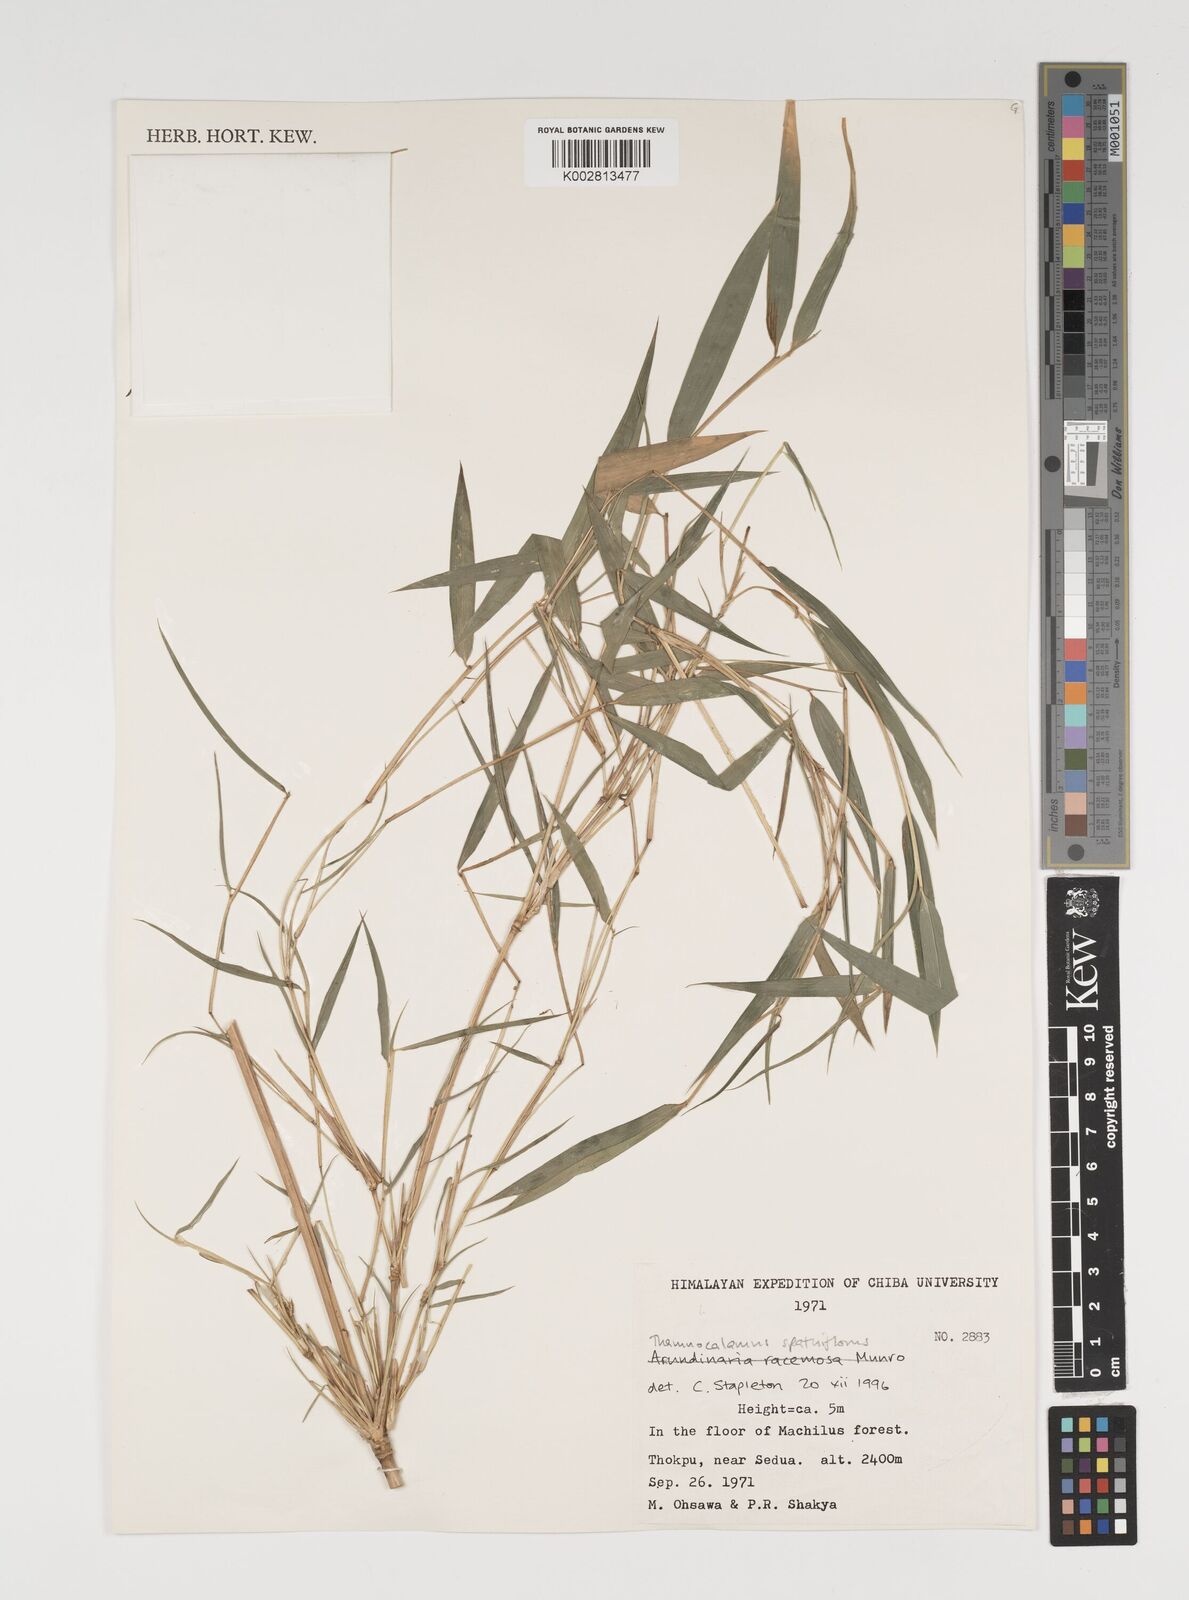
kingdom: Plantae
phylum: Tracheophyta
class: Liliopsida
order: Poales
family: Poaceae
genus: Thamnocalamus
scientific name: Thamnocalamus spathiflorus
